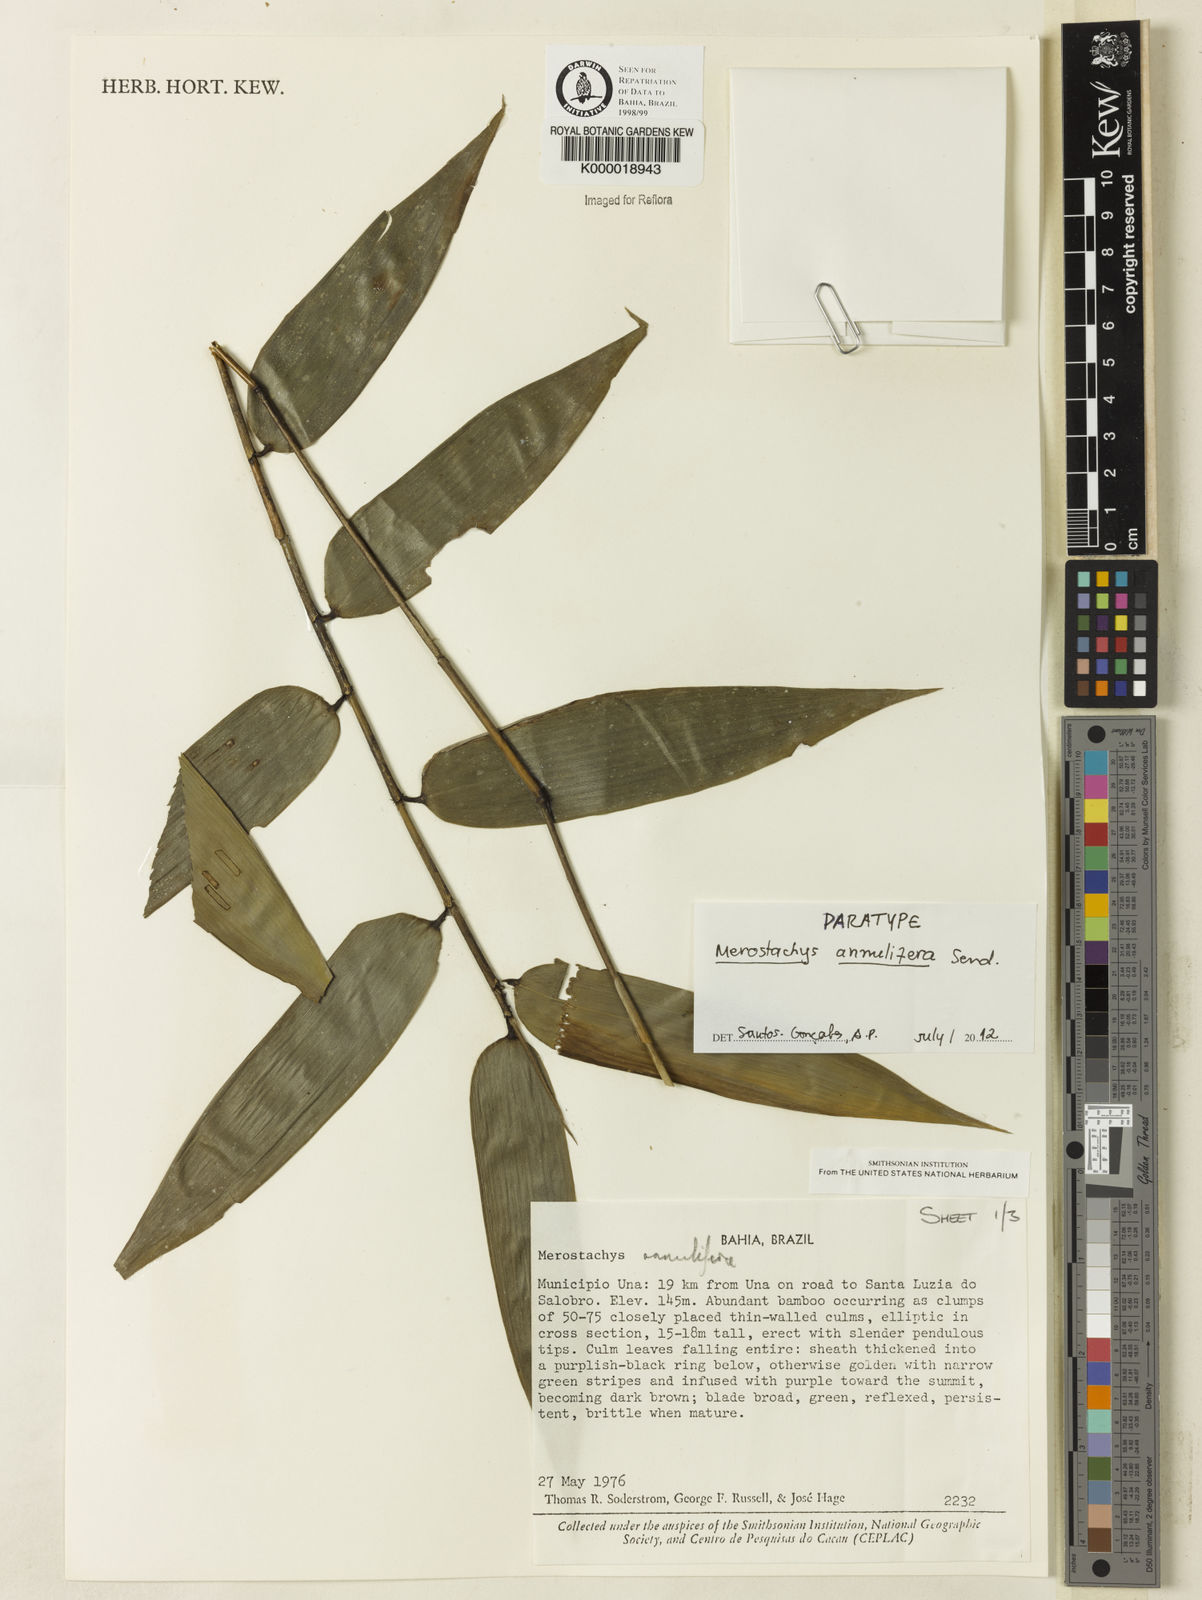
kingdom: Plantae
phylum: Tracheophyta
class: Liliopsida
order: Poales
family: Poaceae
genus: Merostachys
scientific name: Merostachys annulifera
